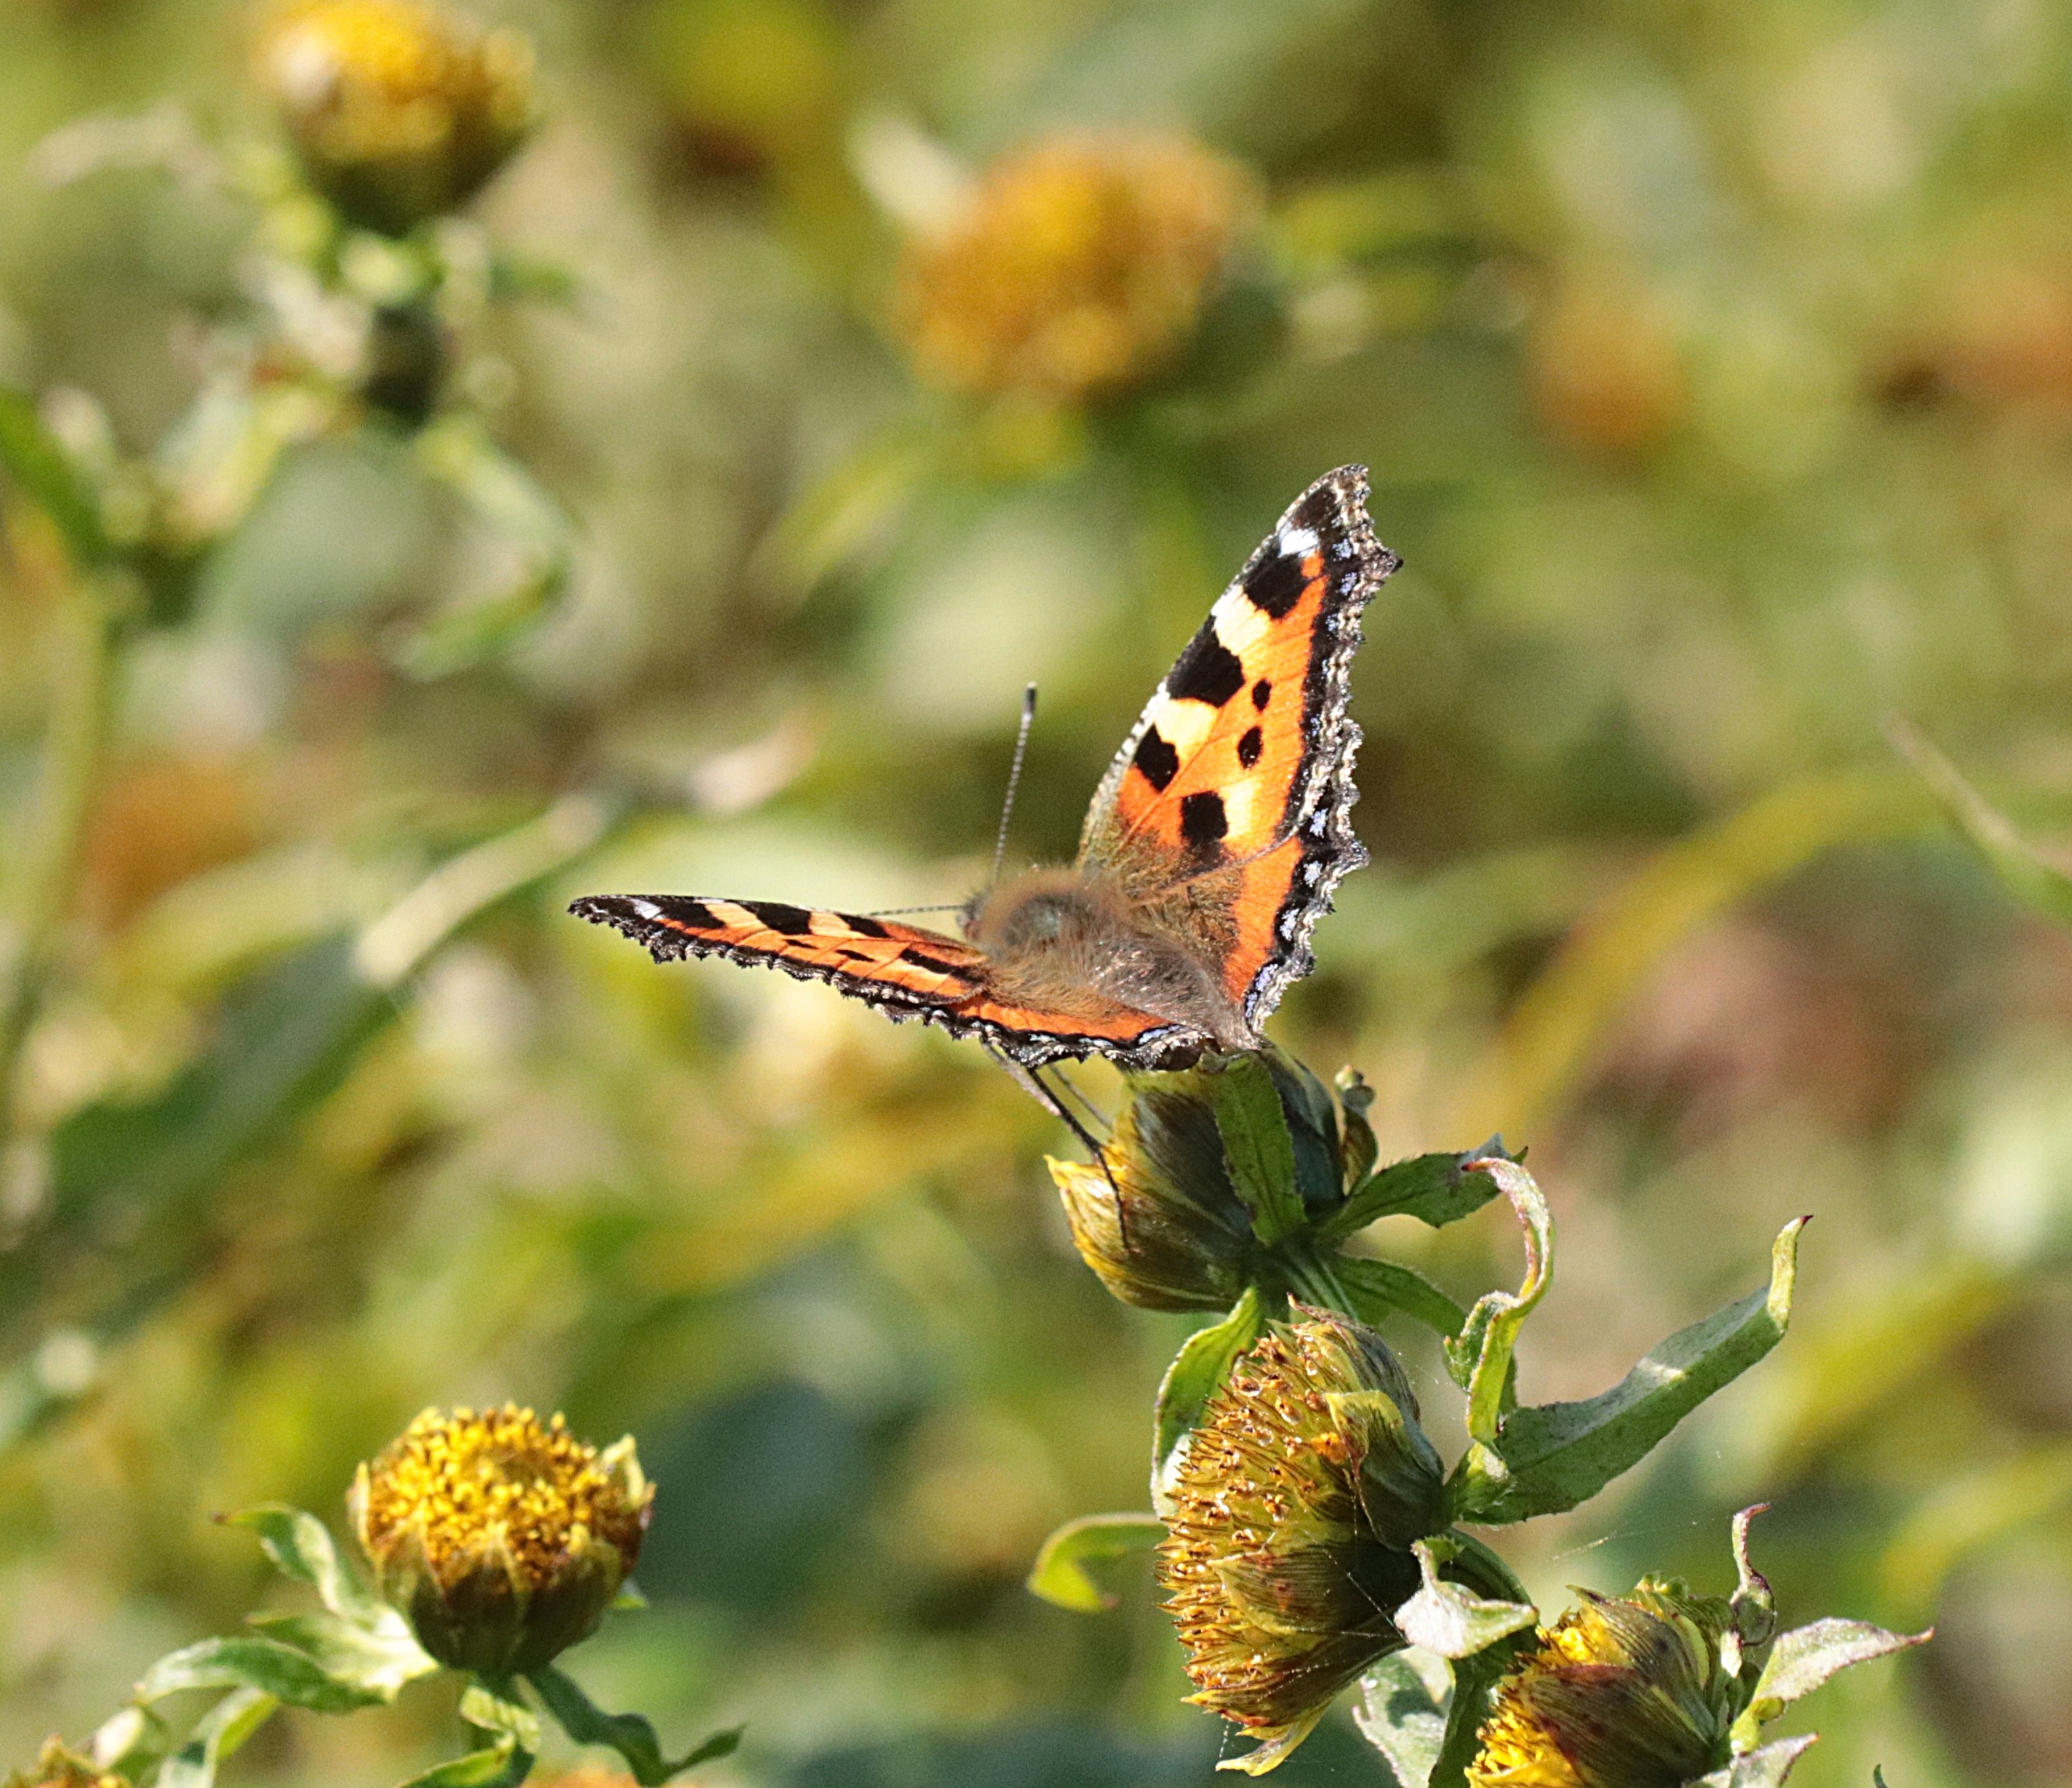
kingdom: Animalia
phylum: Arthropoda
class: Insecta
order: Lepidoptera
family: Nymphalidae
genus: Aglais
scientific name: Aglais urticae
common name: Nældens takvinge
